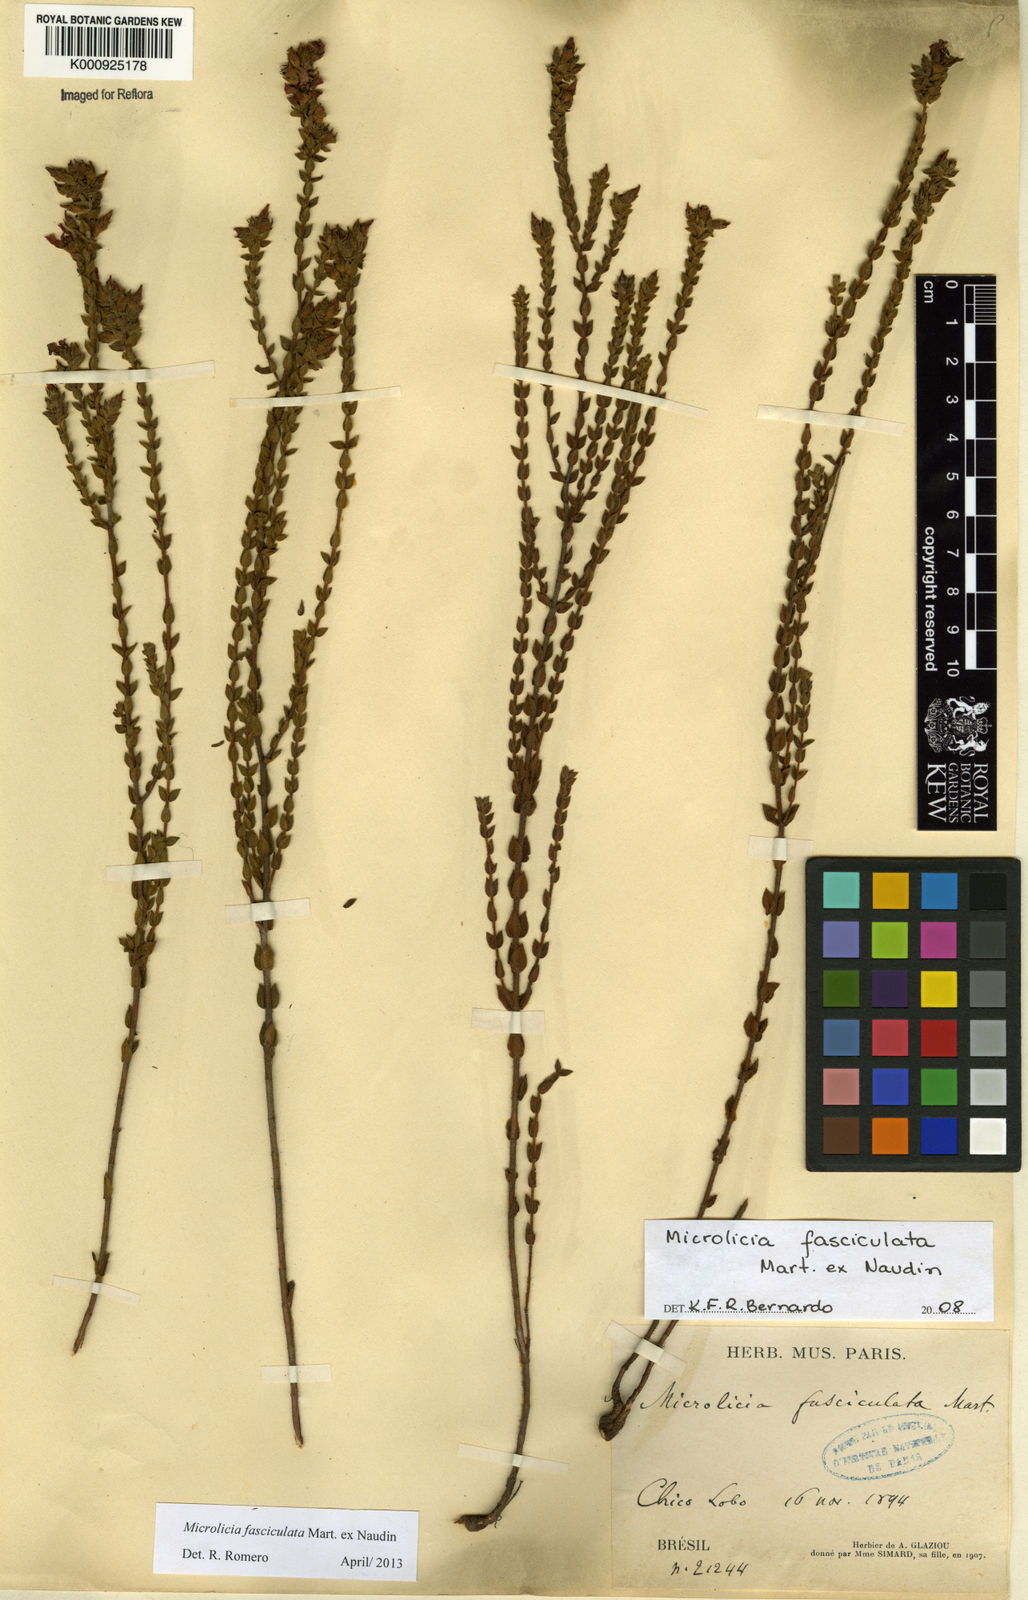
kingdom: Plantae
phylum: Tracheophyta
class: Magnoliopsida
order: Myrtales
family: Melastomataceae
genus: Microlicia
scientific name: Microlicia fasciculata
